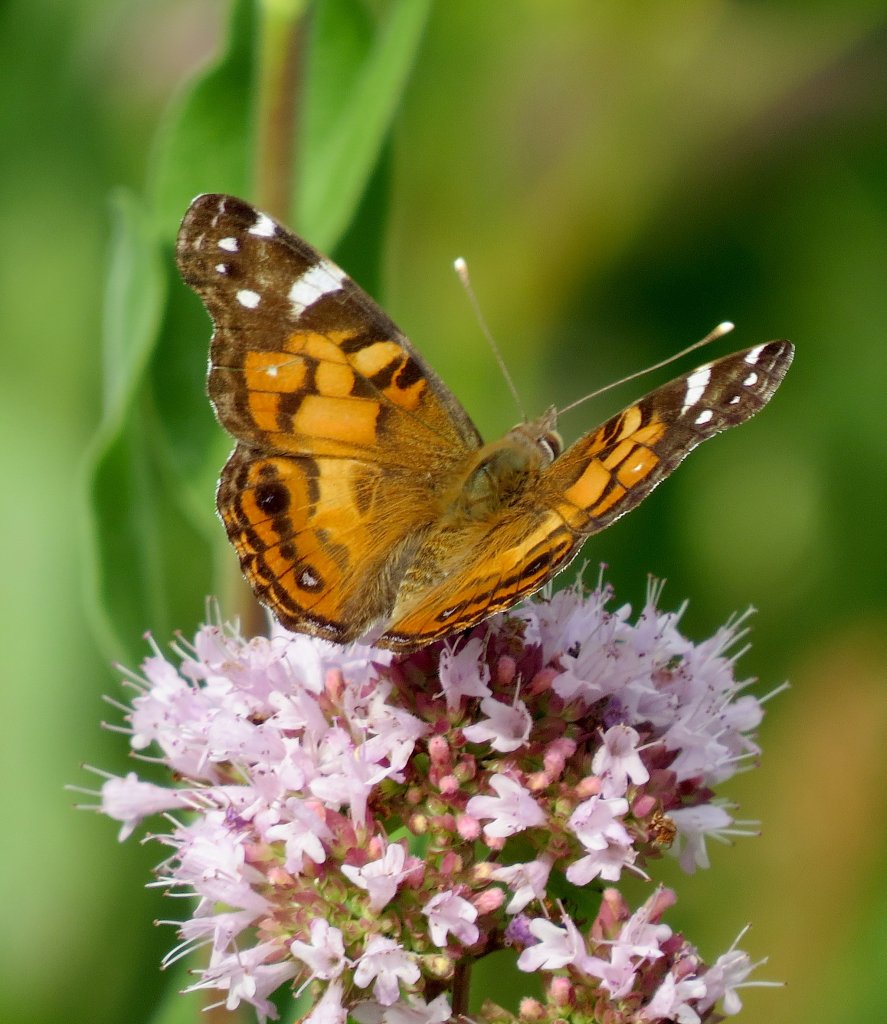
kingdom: Animalia
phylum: Arthropoda
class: Insecta
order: Lepidoptera
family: Nymphalidae
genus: Vanessa
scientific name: Vanessa virginiensis
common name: American Lady
